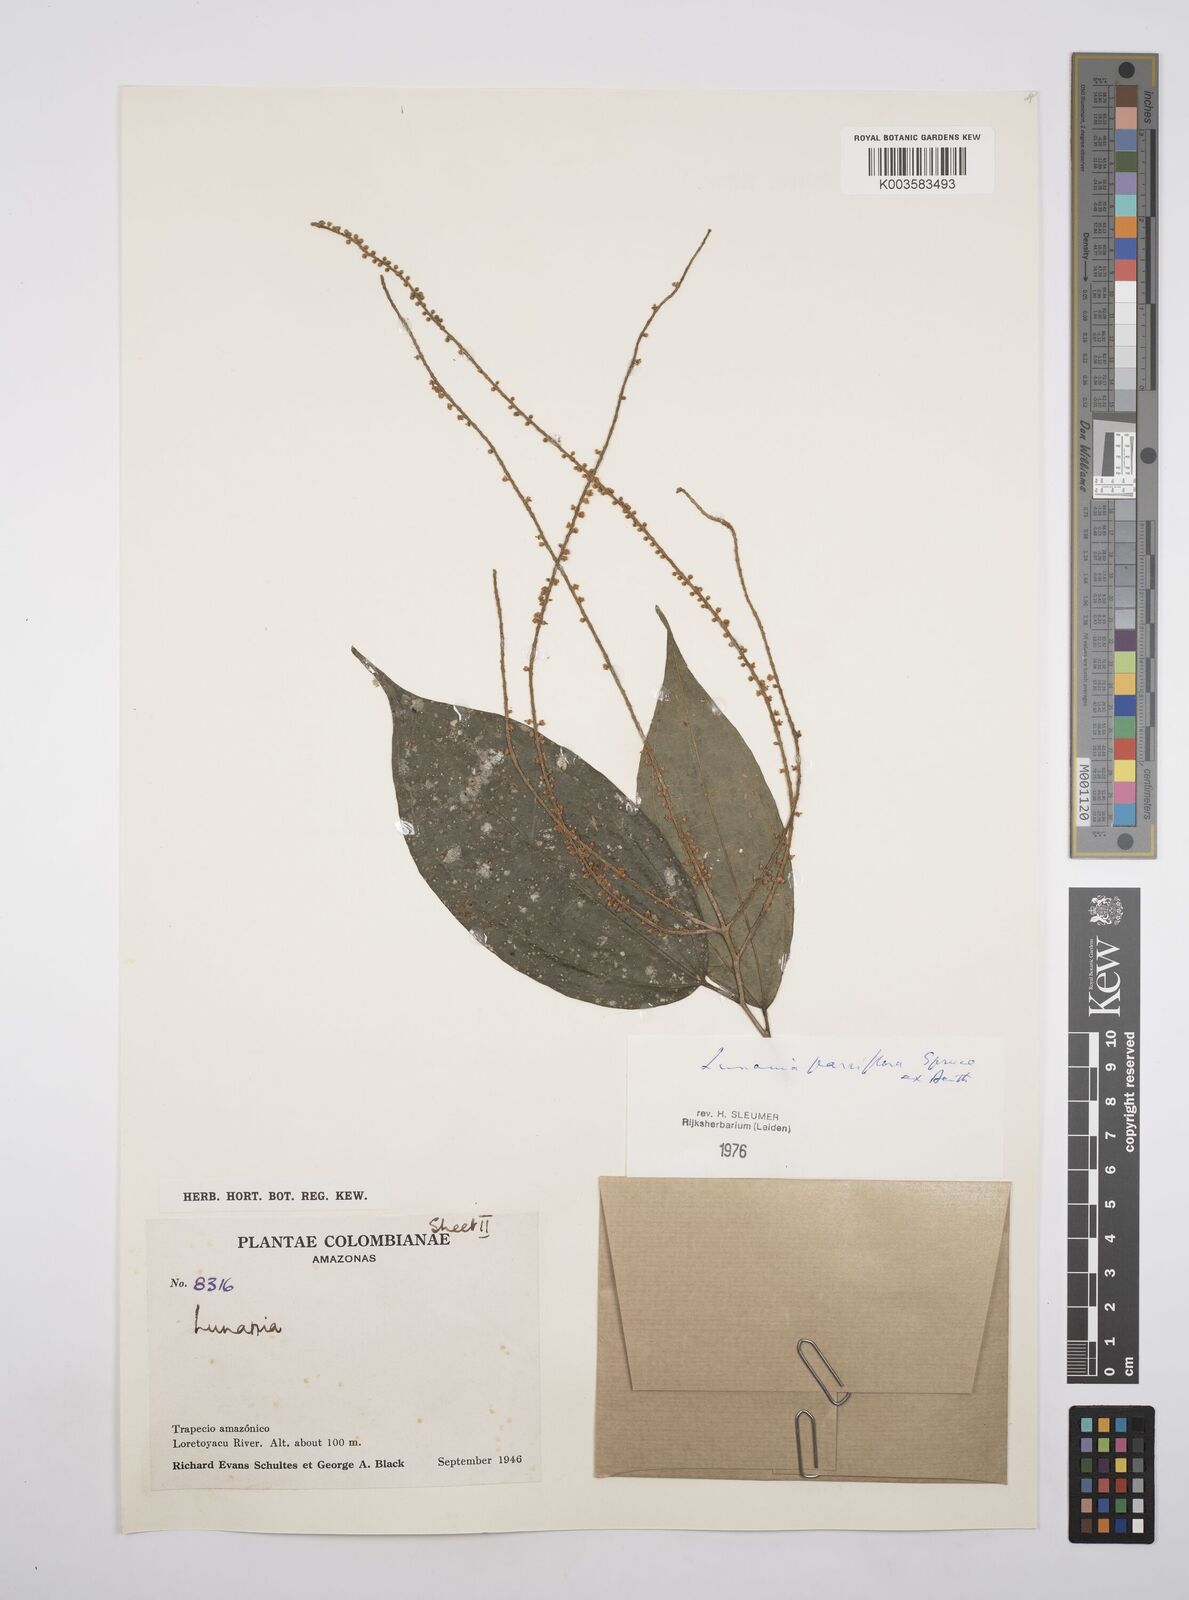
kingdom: Plantae
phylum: Tracheophyta
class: Magnoliopsida
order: Malpighiales
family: Salicaceae
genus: Lunania
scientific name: Lunania parviflora
